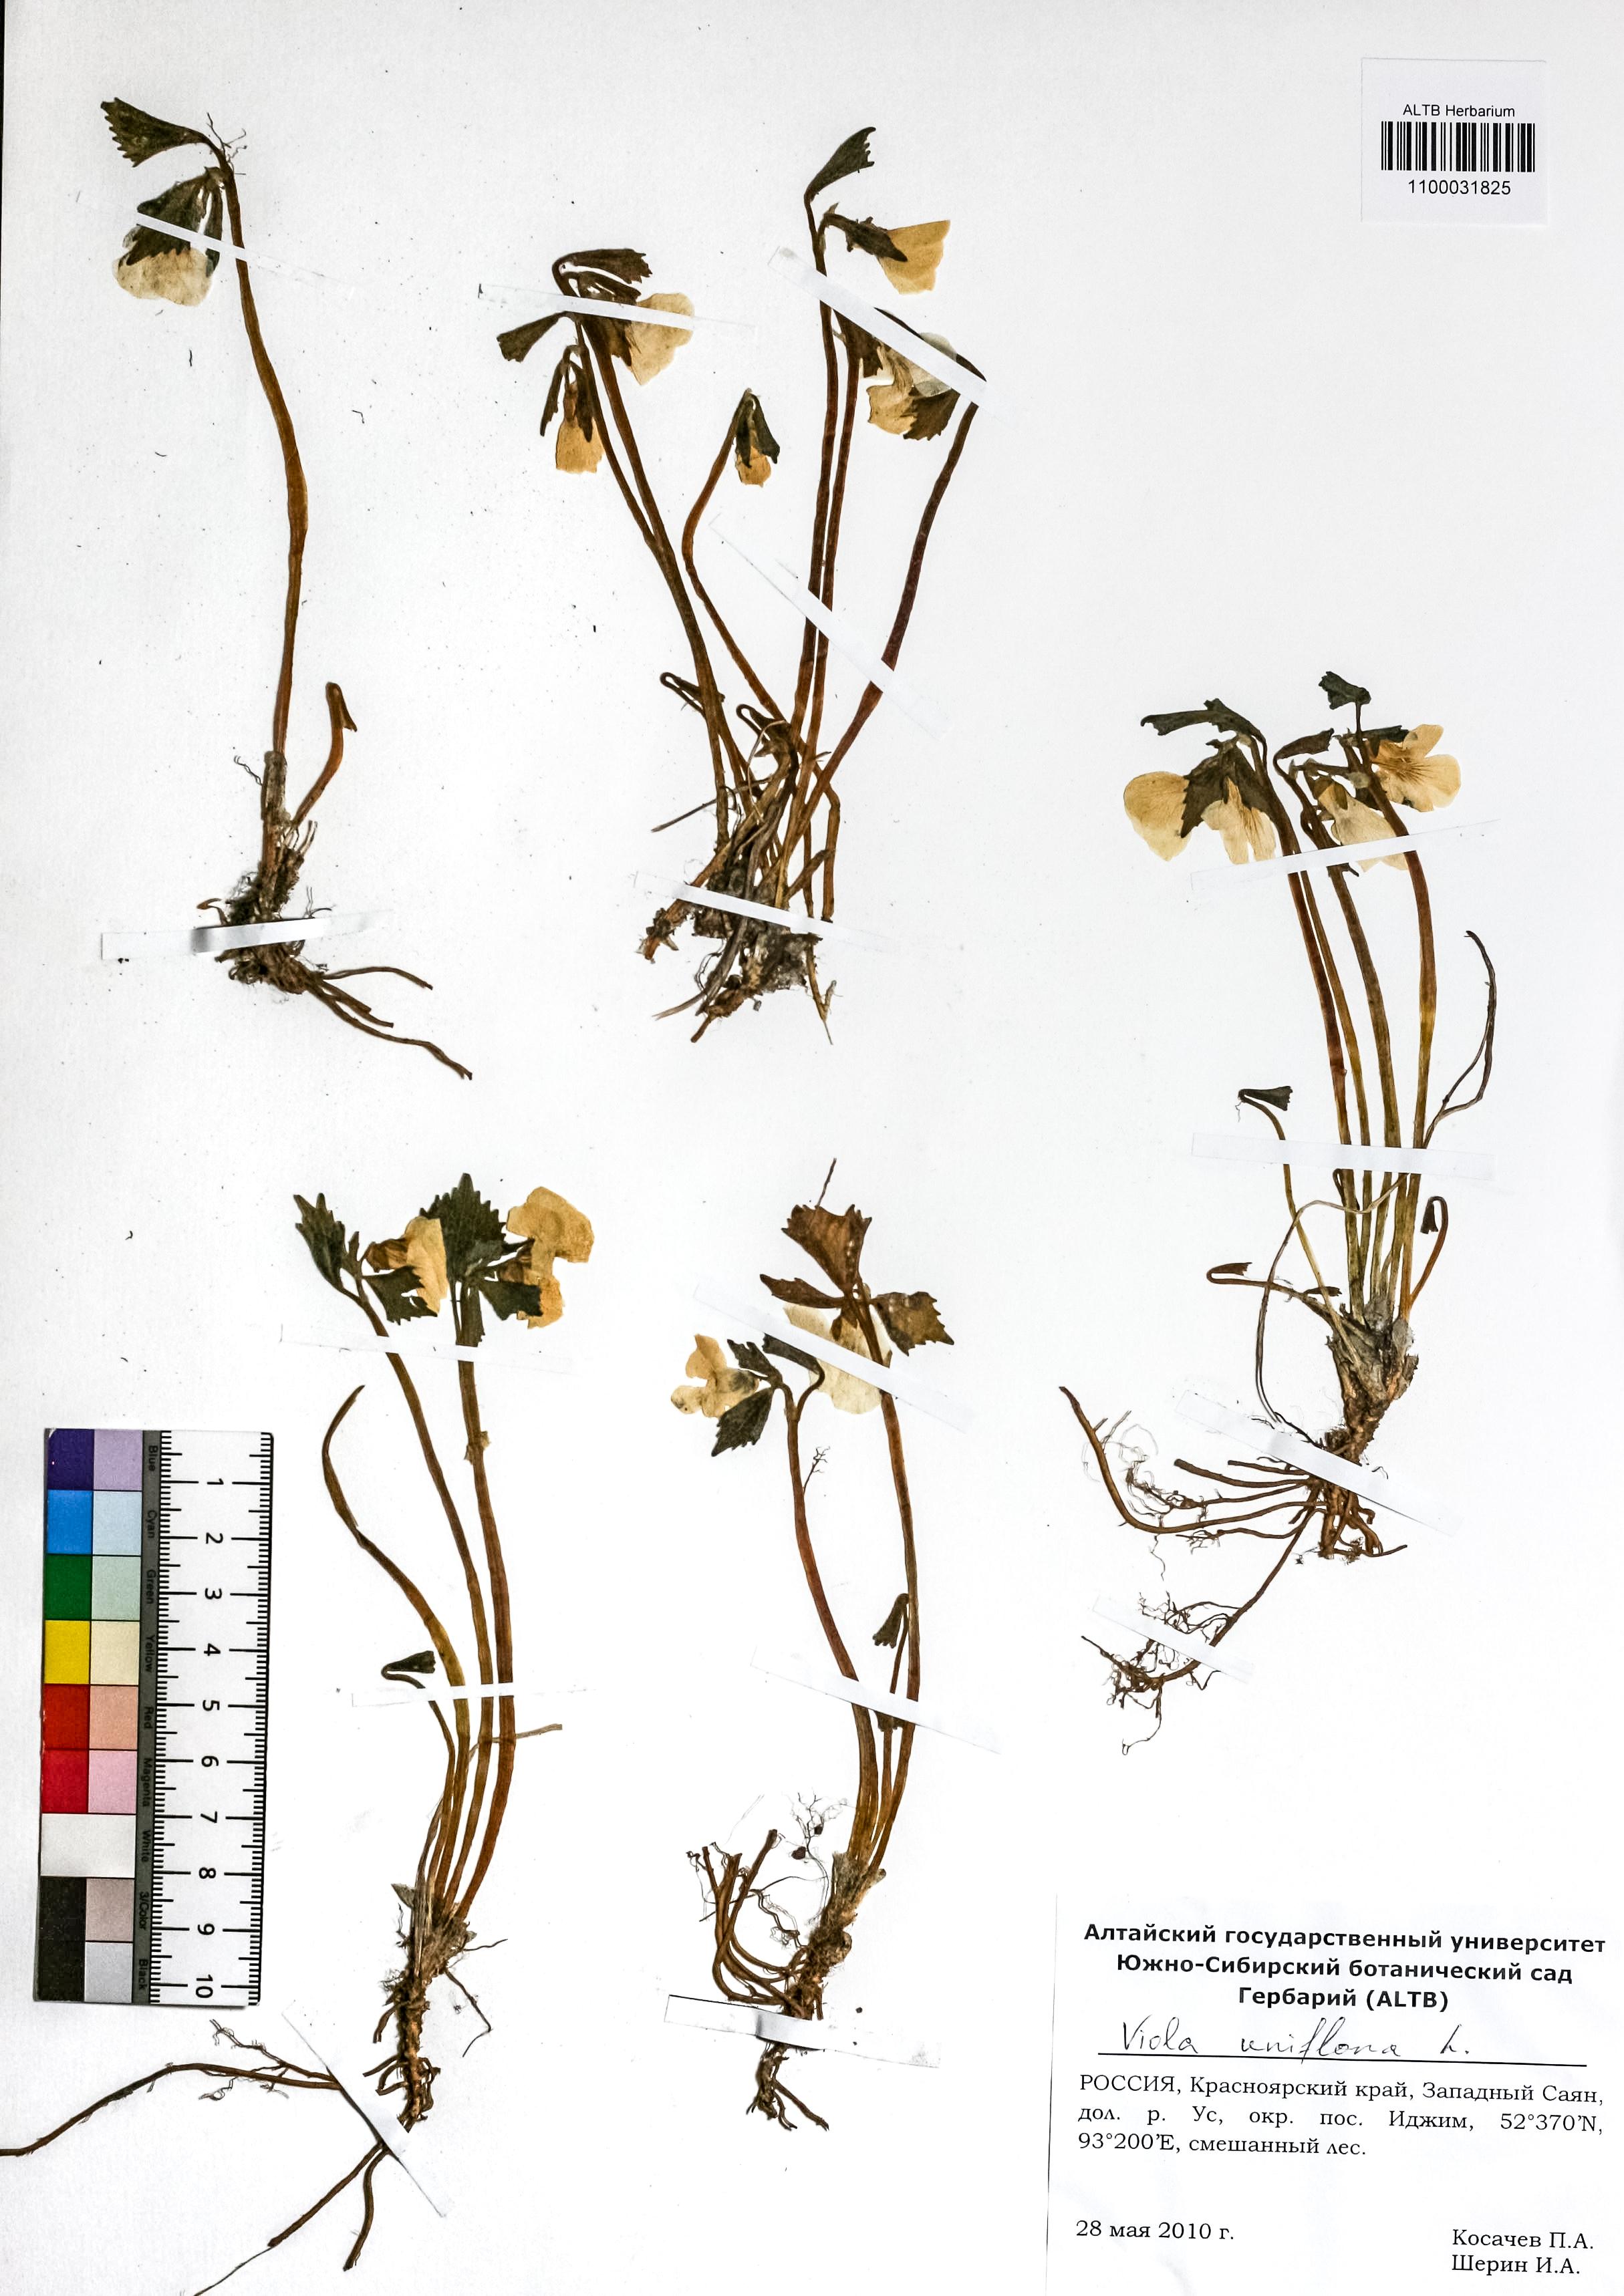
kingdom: Plantae
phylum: Tracheophyta
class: Magnoliopsida
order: Malpighiales
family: Violaceae
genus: Viola
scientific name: Viola uniflora
